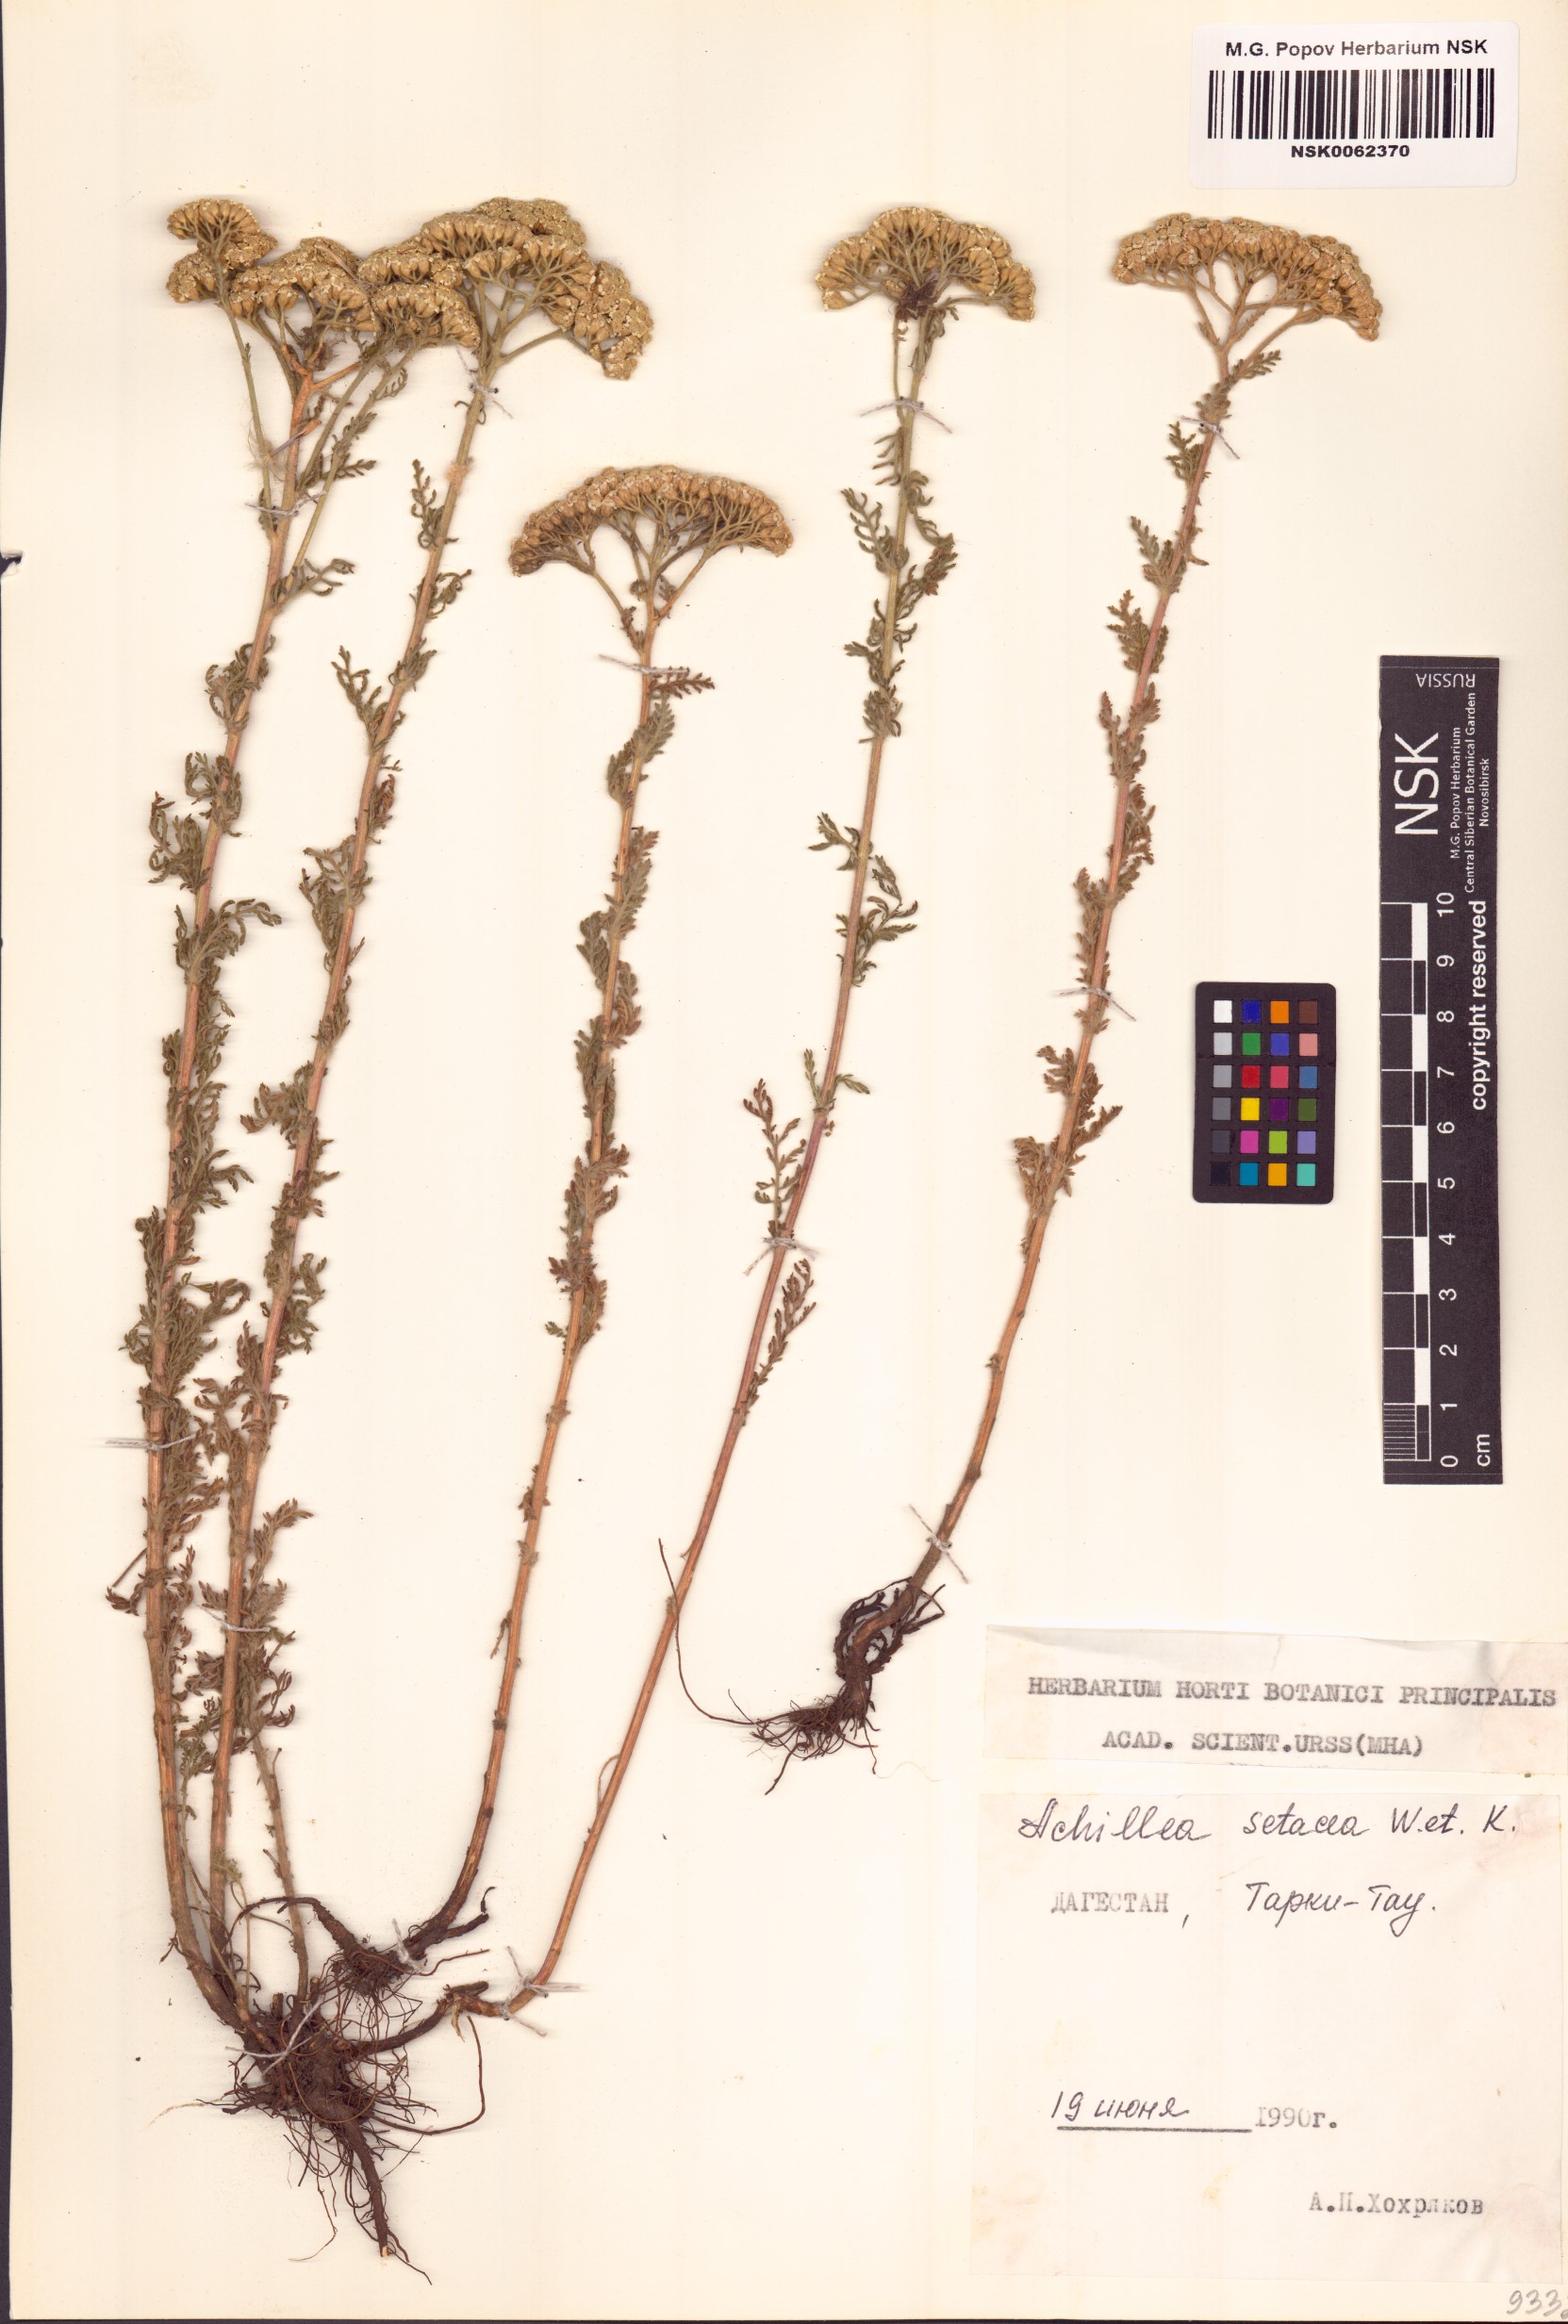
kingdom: Plantae
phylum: Tracheophyta
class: Magnoliopsida
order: Asterales
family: Asteraceae
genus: Achillea
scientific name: Achillea setacea
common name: Bristly yarrow
